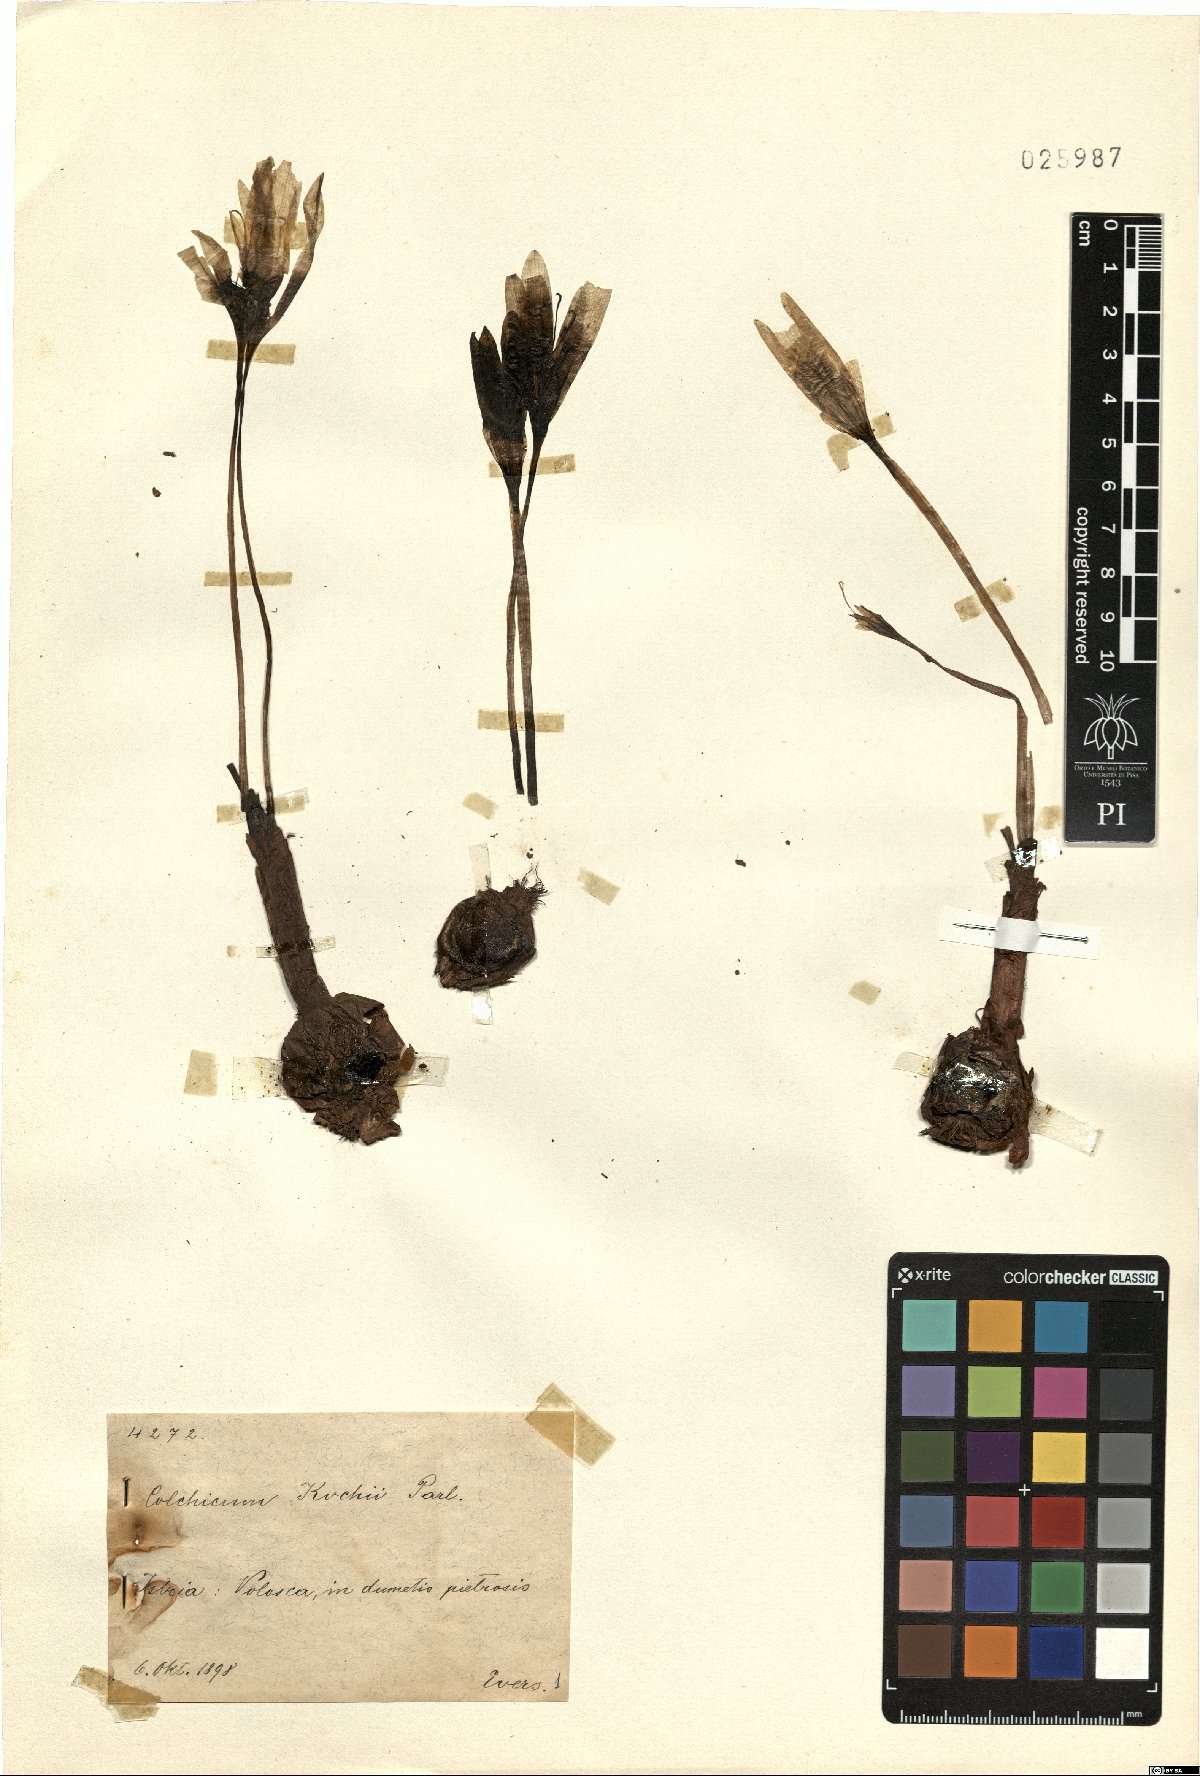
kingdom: Plantae
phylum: Tracheophyta
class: Liliopsida
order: Liliales
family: Colchicaceae
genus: Colchicum
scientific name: Colchicum haynaldii
